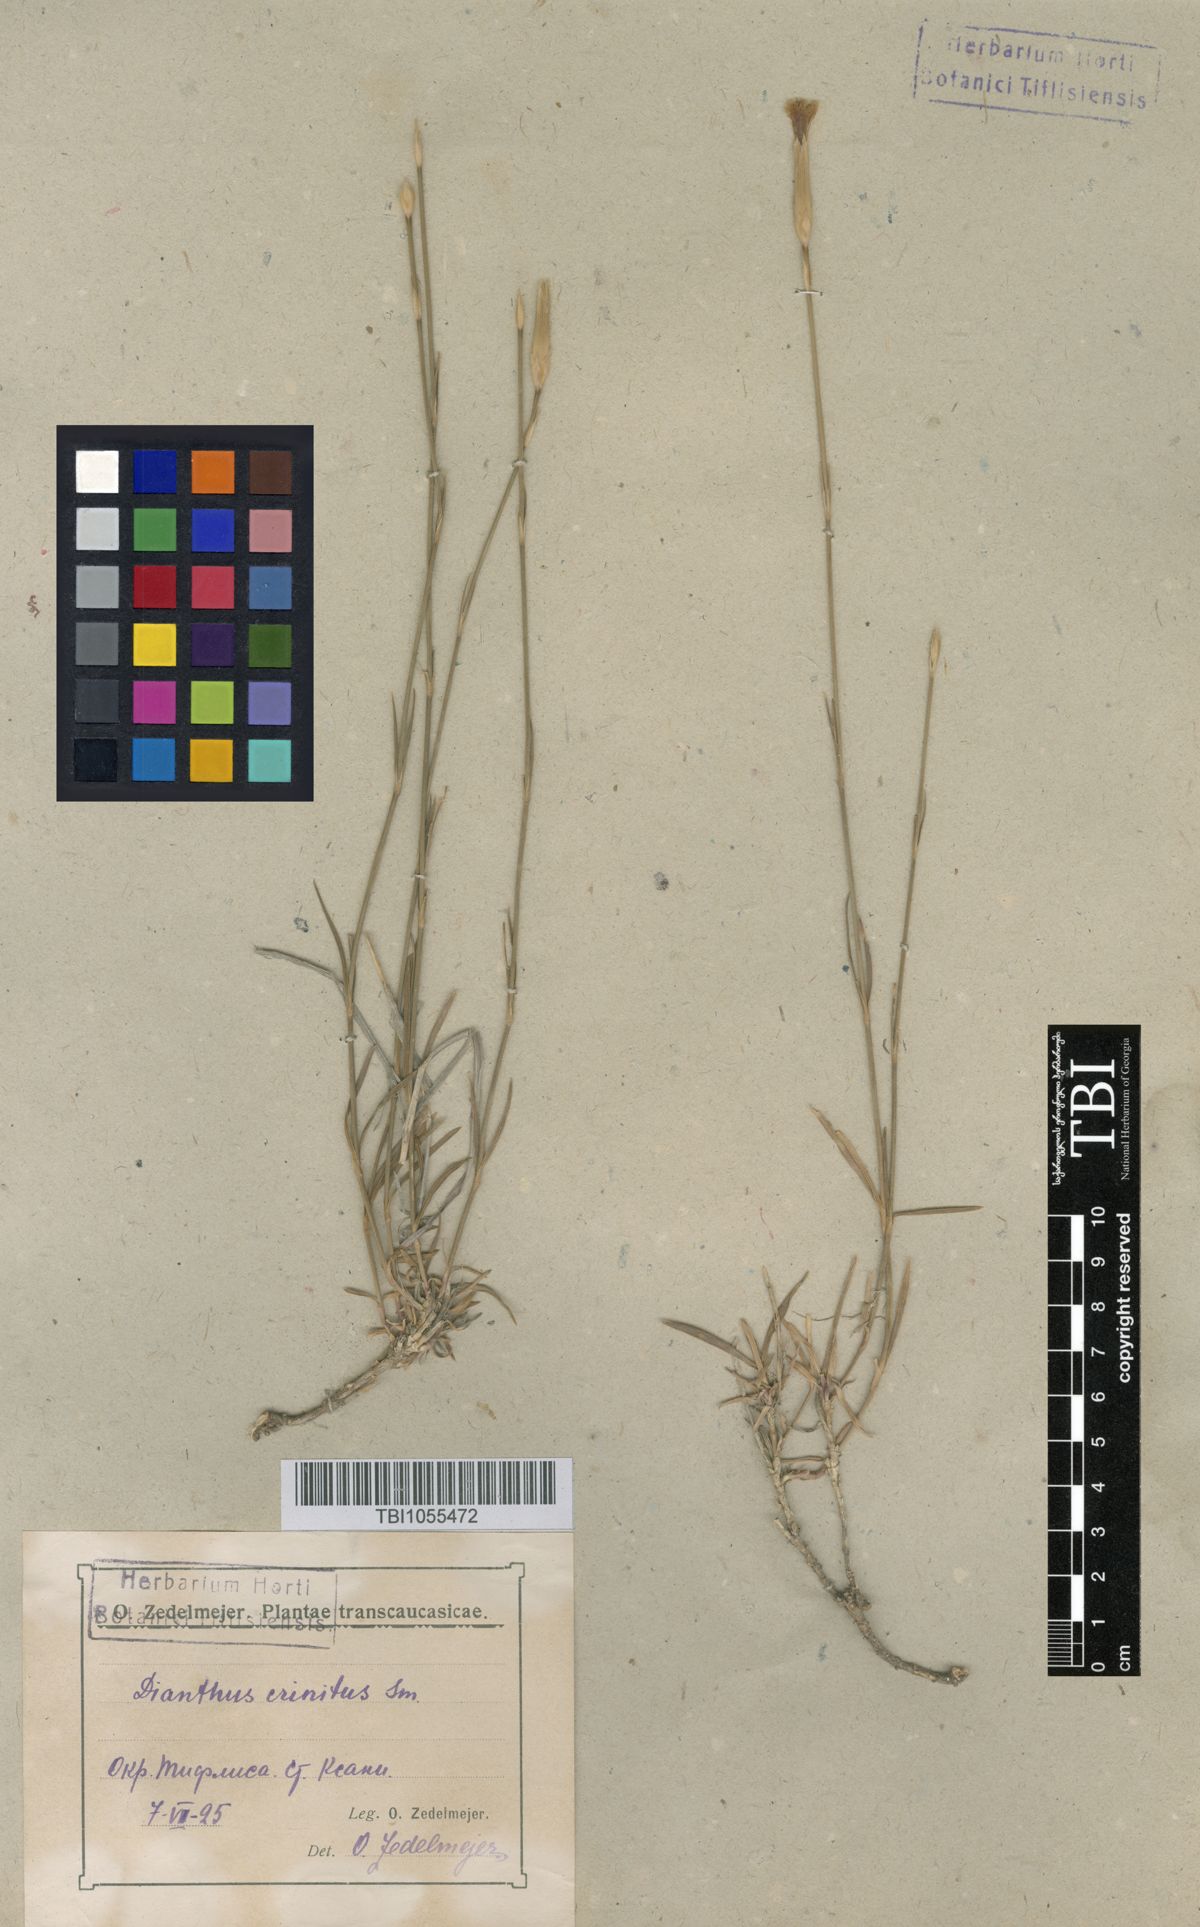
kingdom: Plantae
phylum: Tracheophyta
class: Magnoliopsida
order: Caryophyllales
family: Caryophyllaceae
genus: Dianthus
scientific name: Dianthus crinitus
